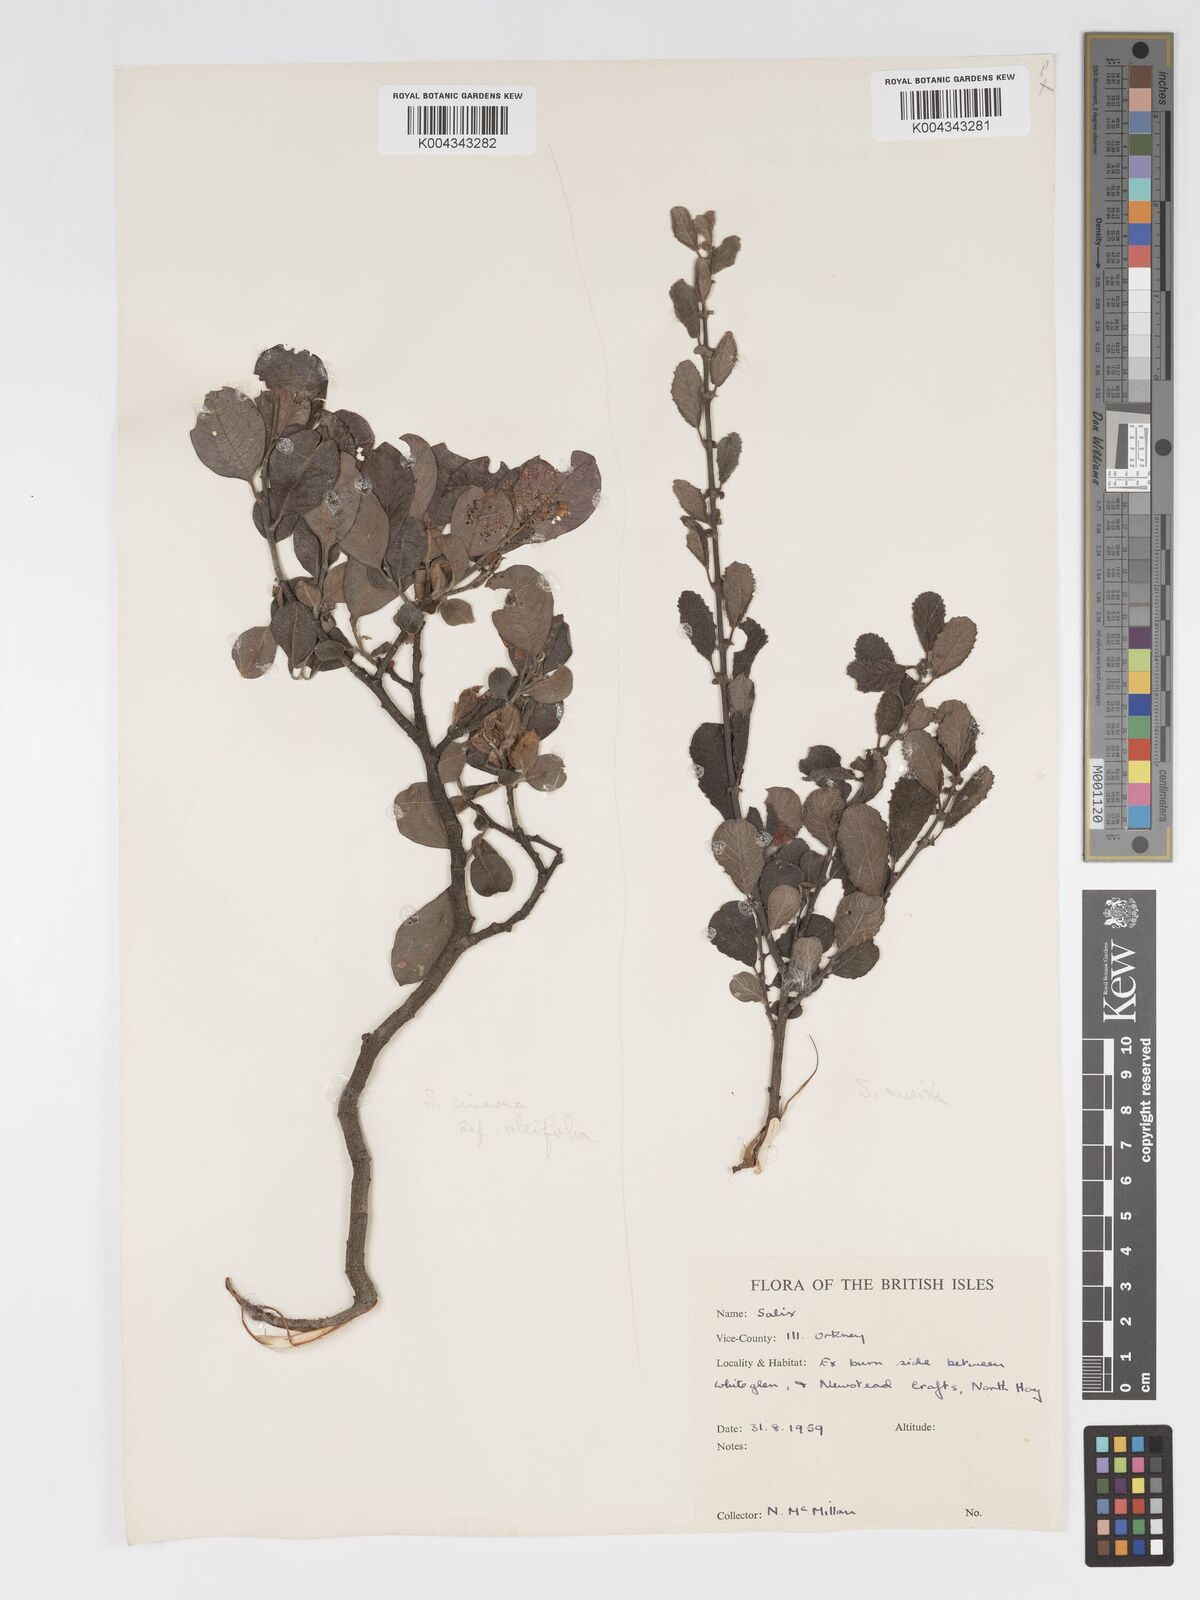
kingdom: Plantae
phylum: Tracheophyta
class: Magnoliopsida
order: Malpighiales
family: Salicaceae
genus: Salix
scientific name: Salix aurita
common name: Eared willow
